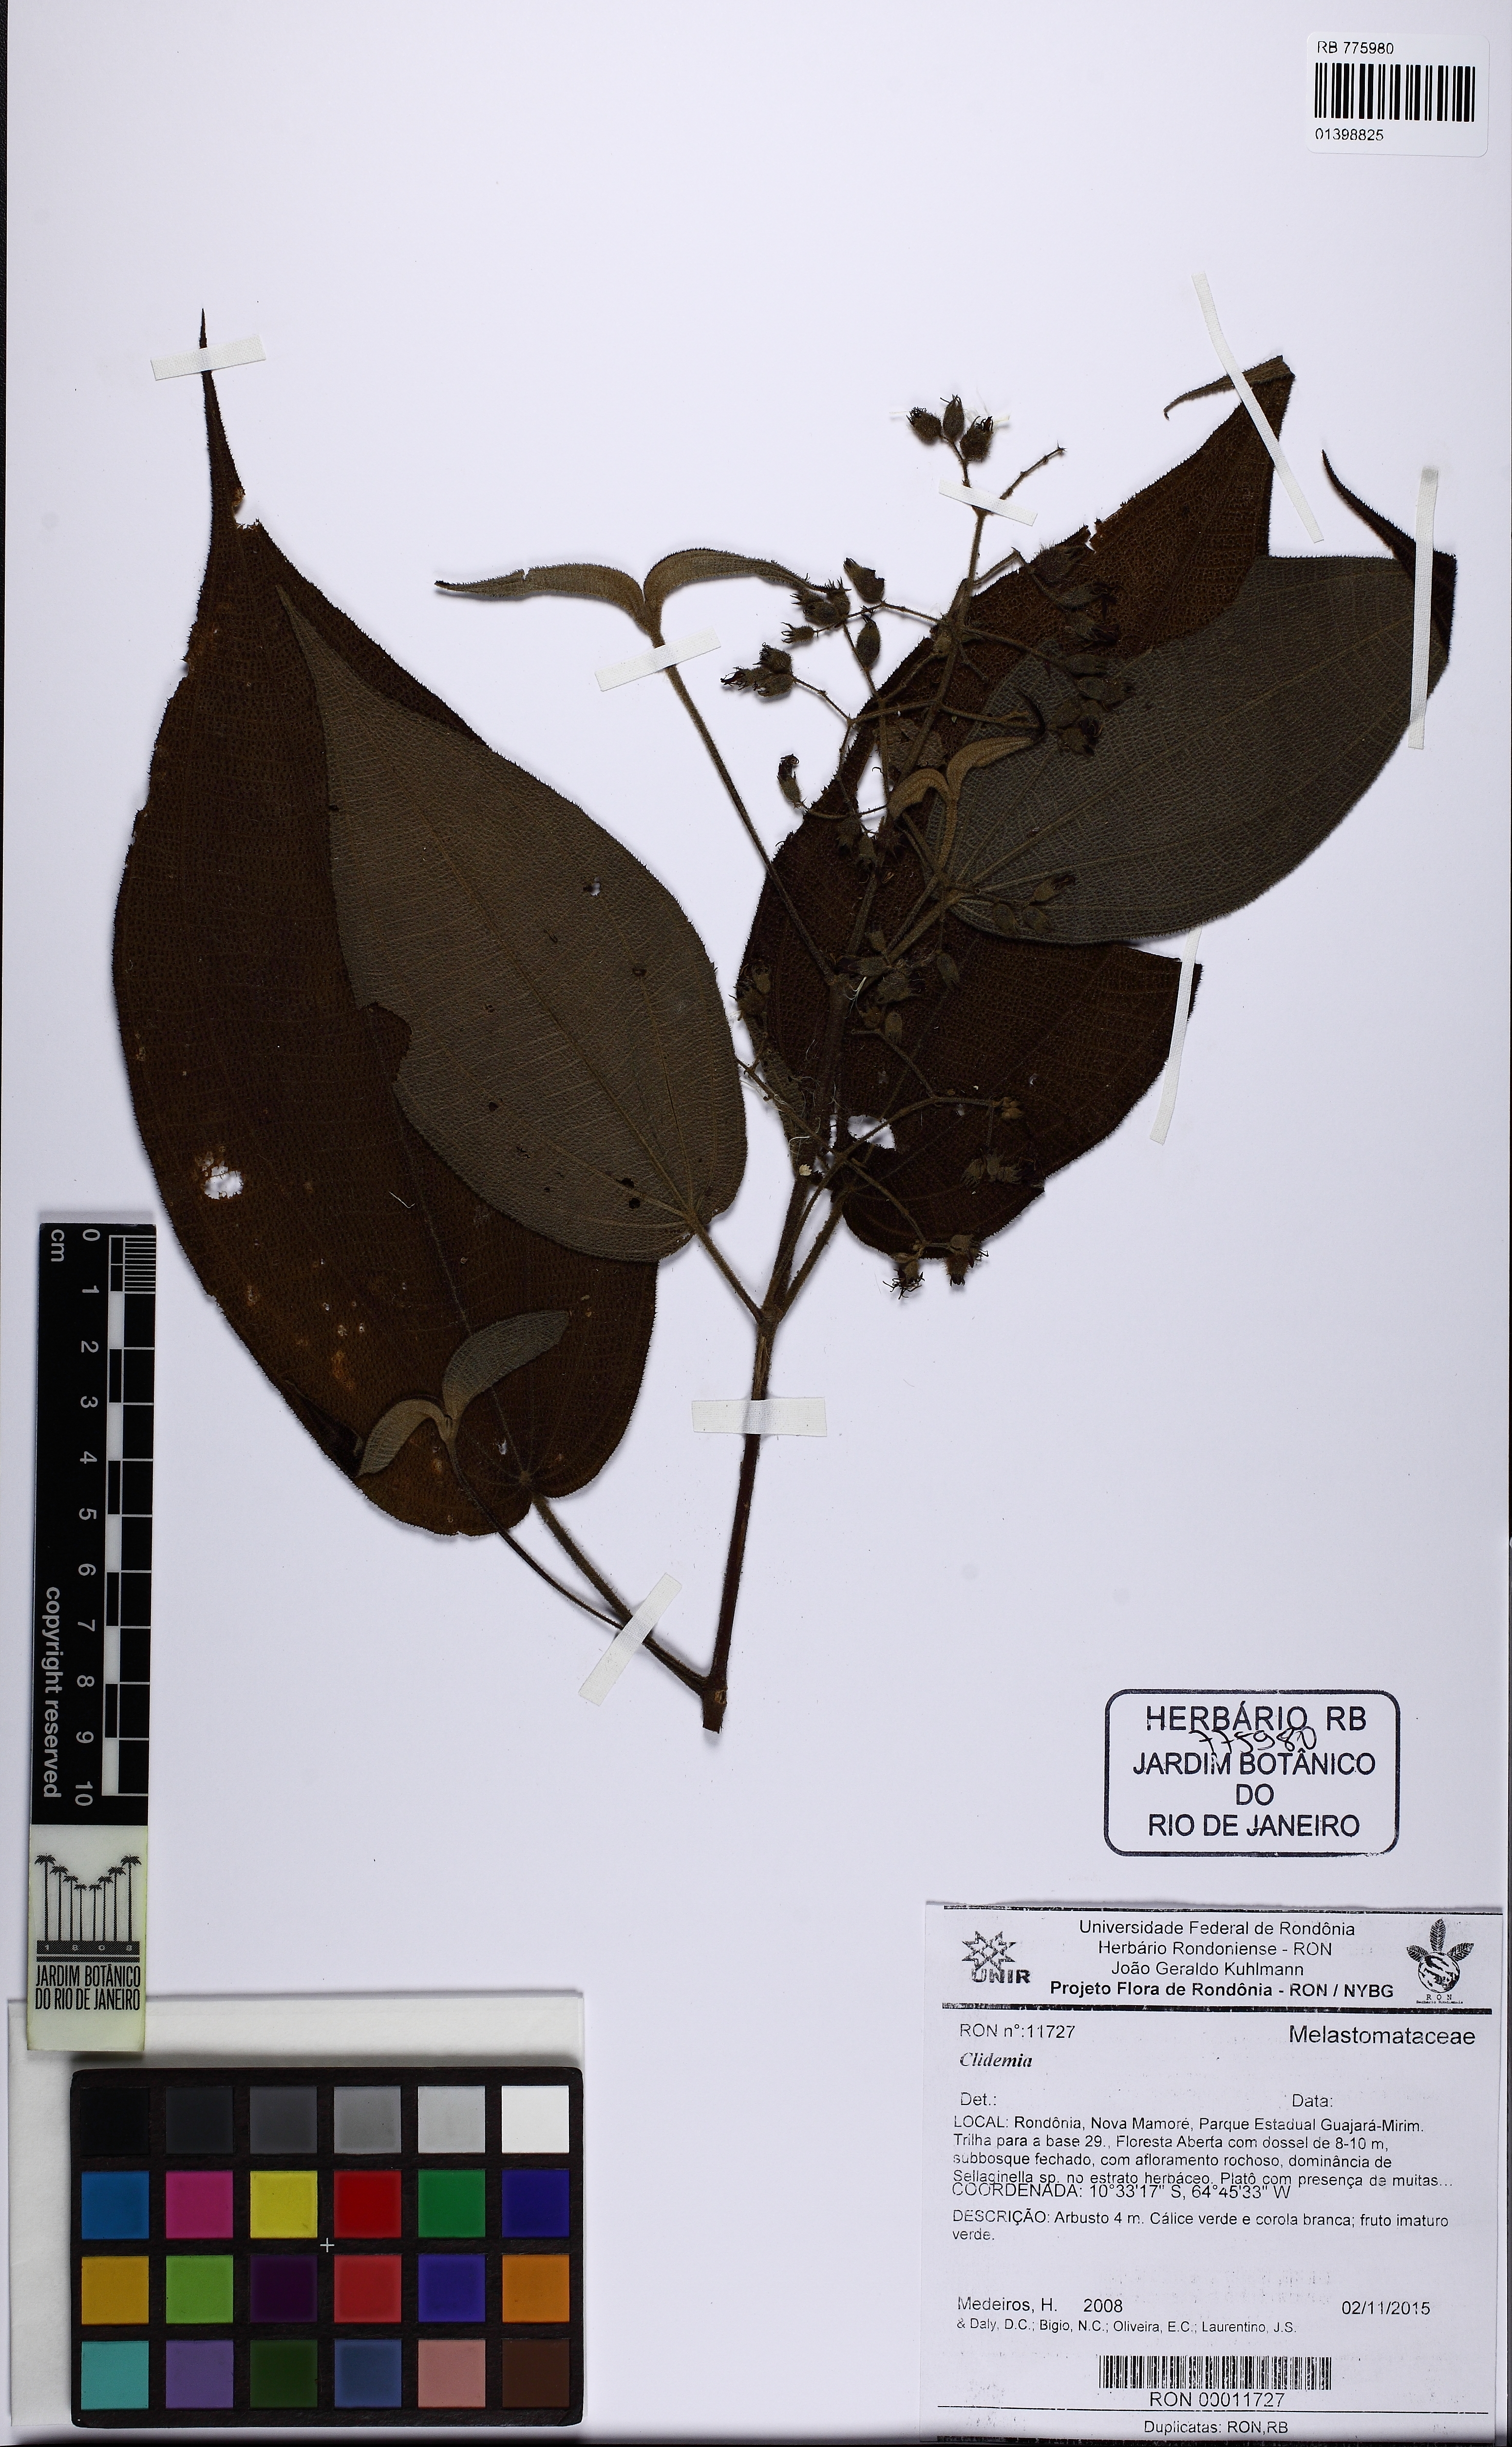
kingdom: Plantae
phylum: Tracheophyta
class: Magnoliopsida
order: Myrtales
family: Melastomataceae
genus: Miconia
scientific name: Miconia bullatifolia
